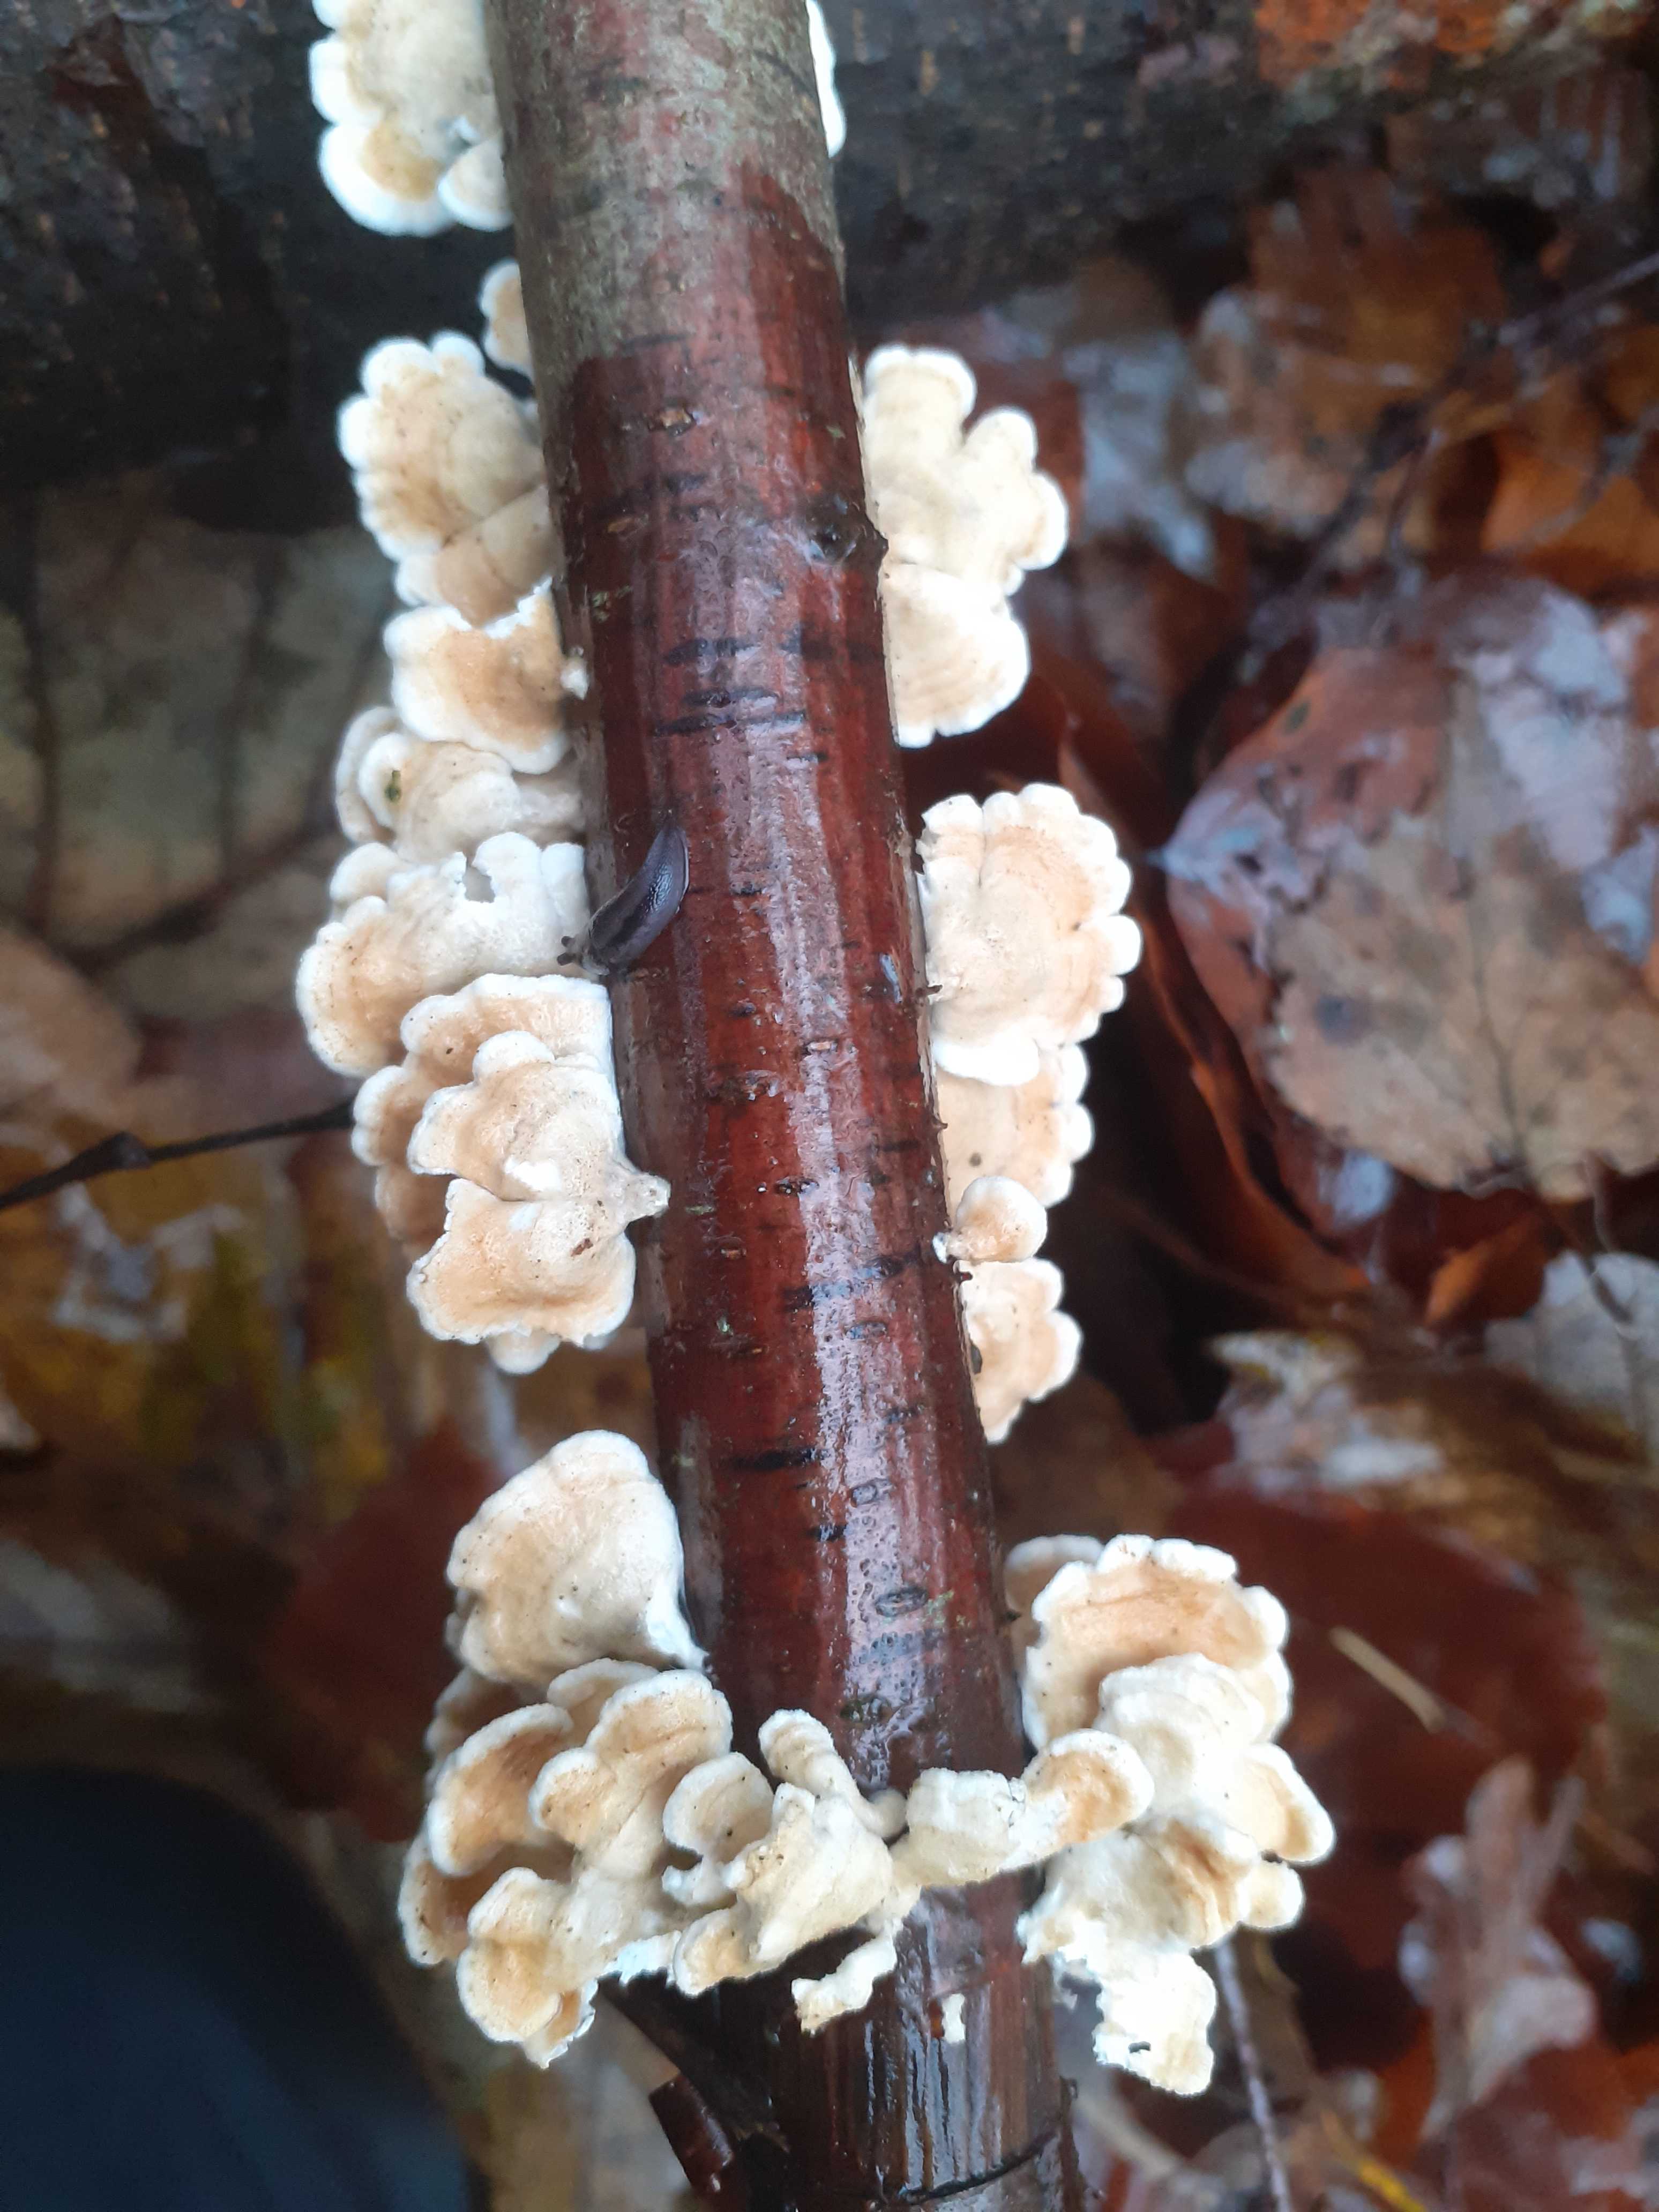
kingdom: Fungi
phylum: Basidiomycota
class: Agaricomycetes
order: Amylocorticiales
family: Amylocorticiaceae
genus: Plicaturopsis
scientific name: Plicaturopsis crispa
